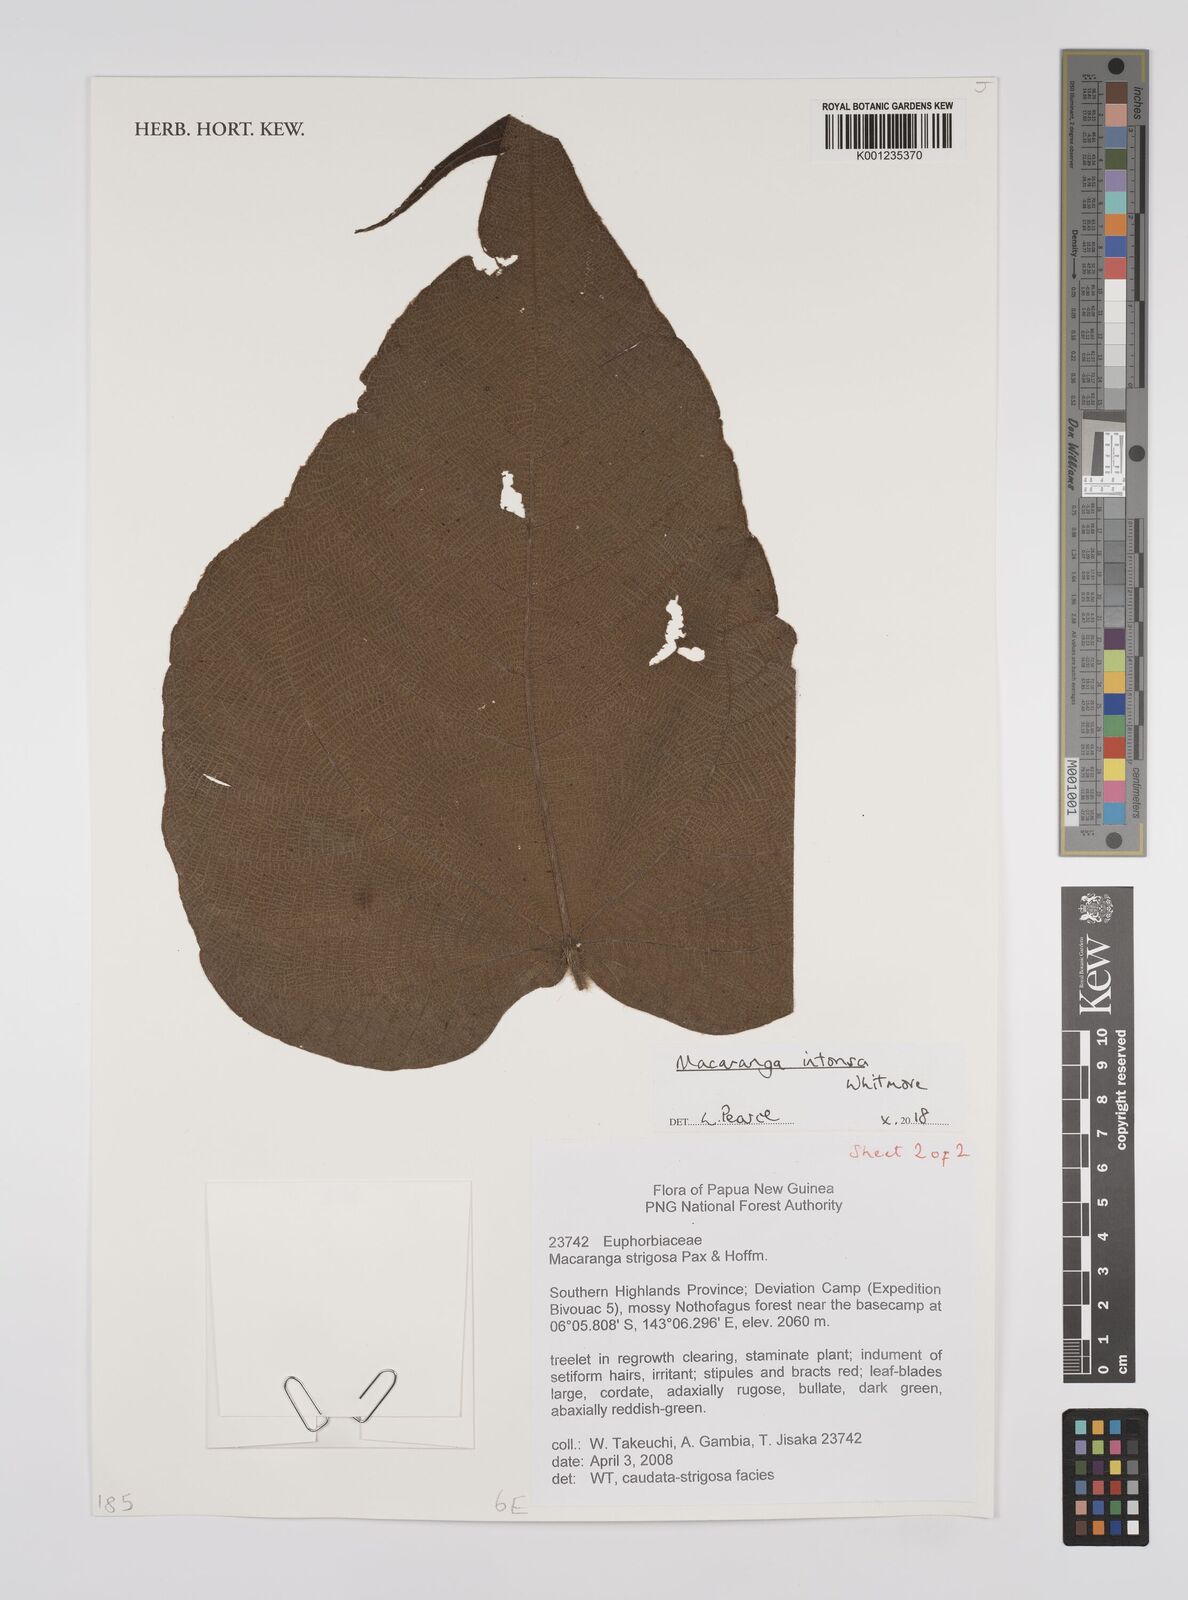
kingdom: Plantae
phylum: Tracheophyta
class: Magnoliopsida
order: Malpighiales
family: Euphorbiaceae
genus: Macaranga
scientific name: Macaranga intonsa
